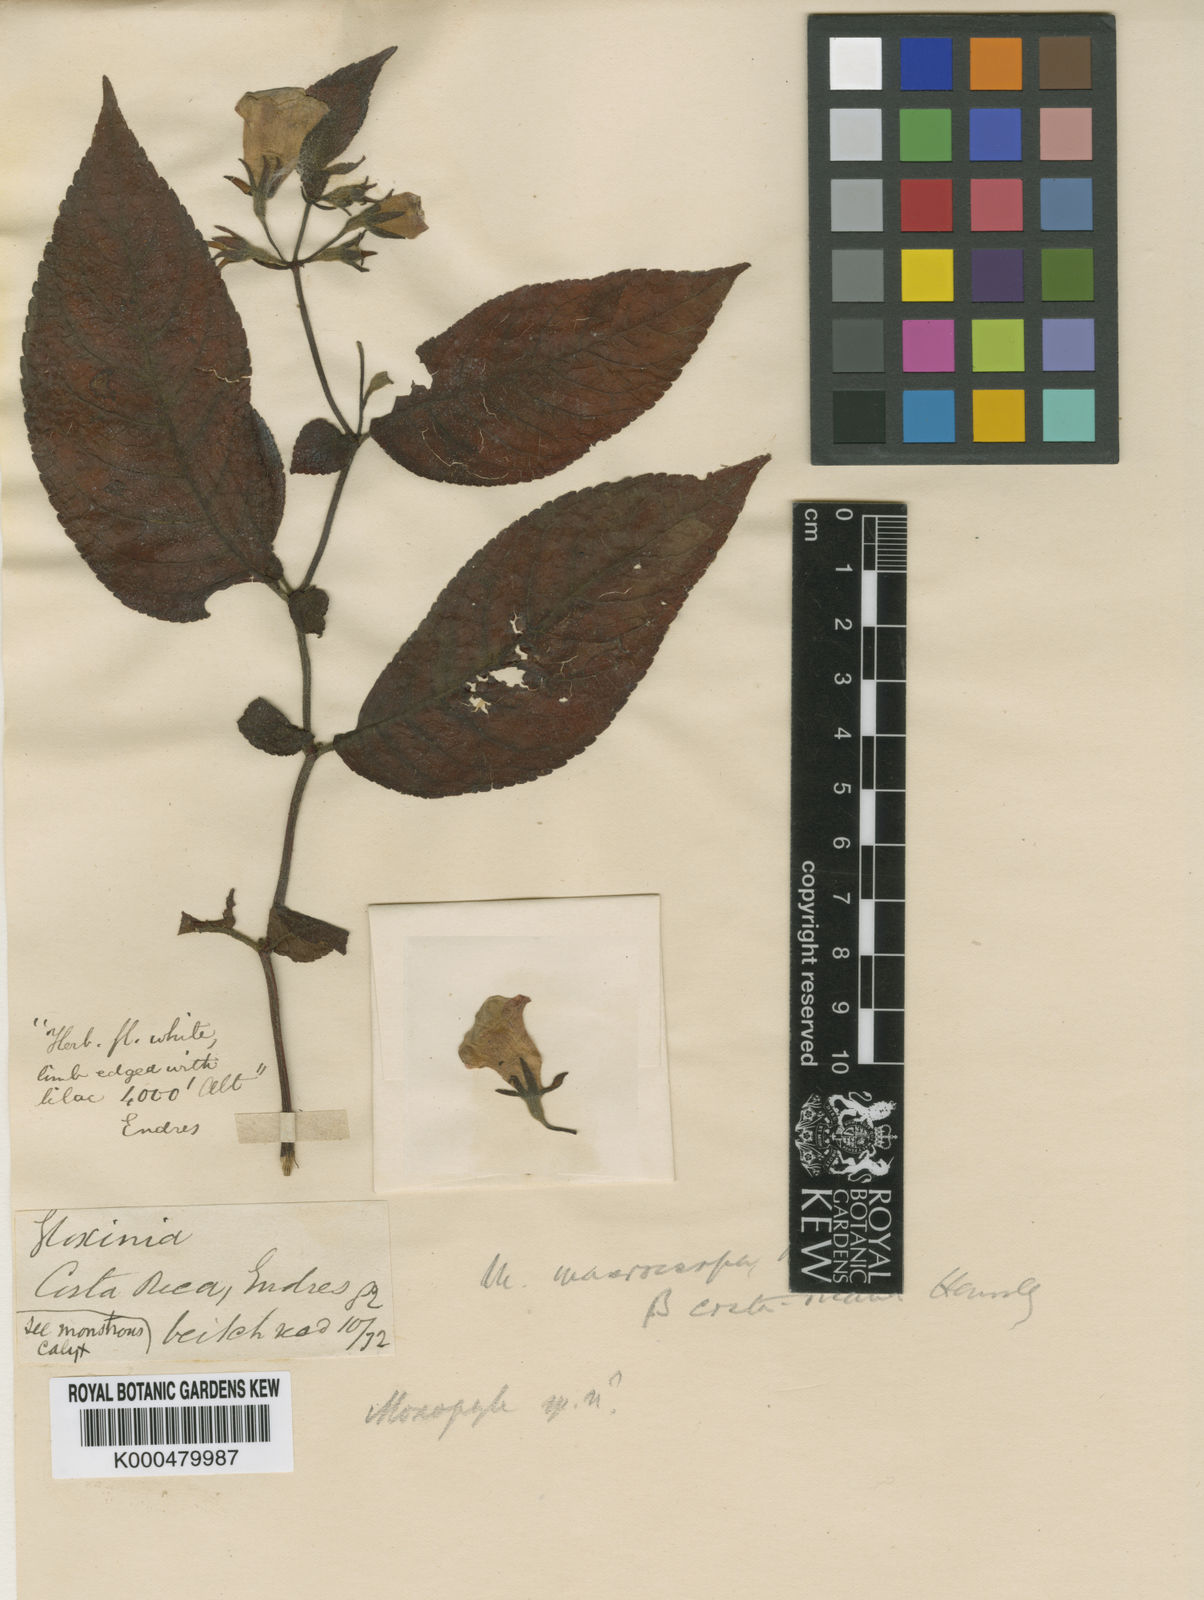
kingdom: Plantae
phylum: Tracheophyta
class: Magnoliopsida
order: Lamiales
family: Gesneriaceae
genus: Monopyle
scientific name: Monopyle maxonii
